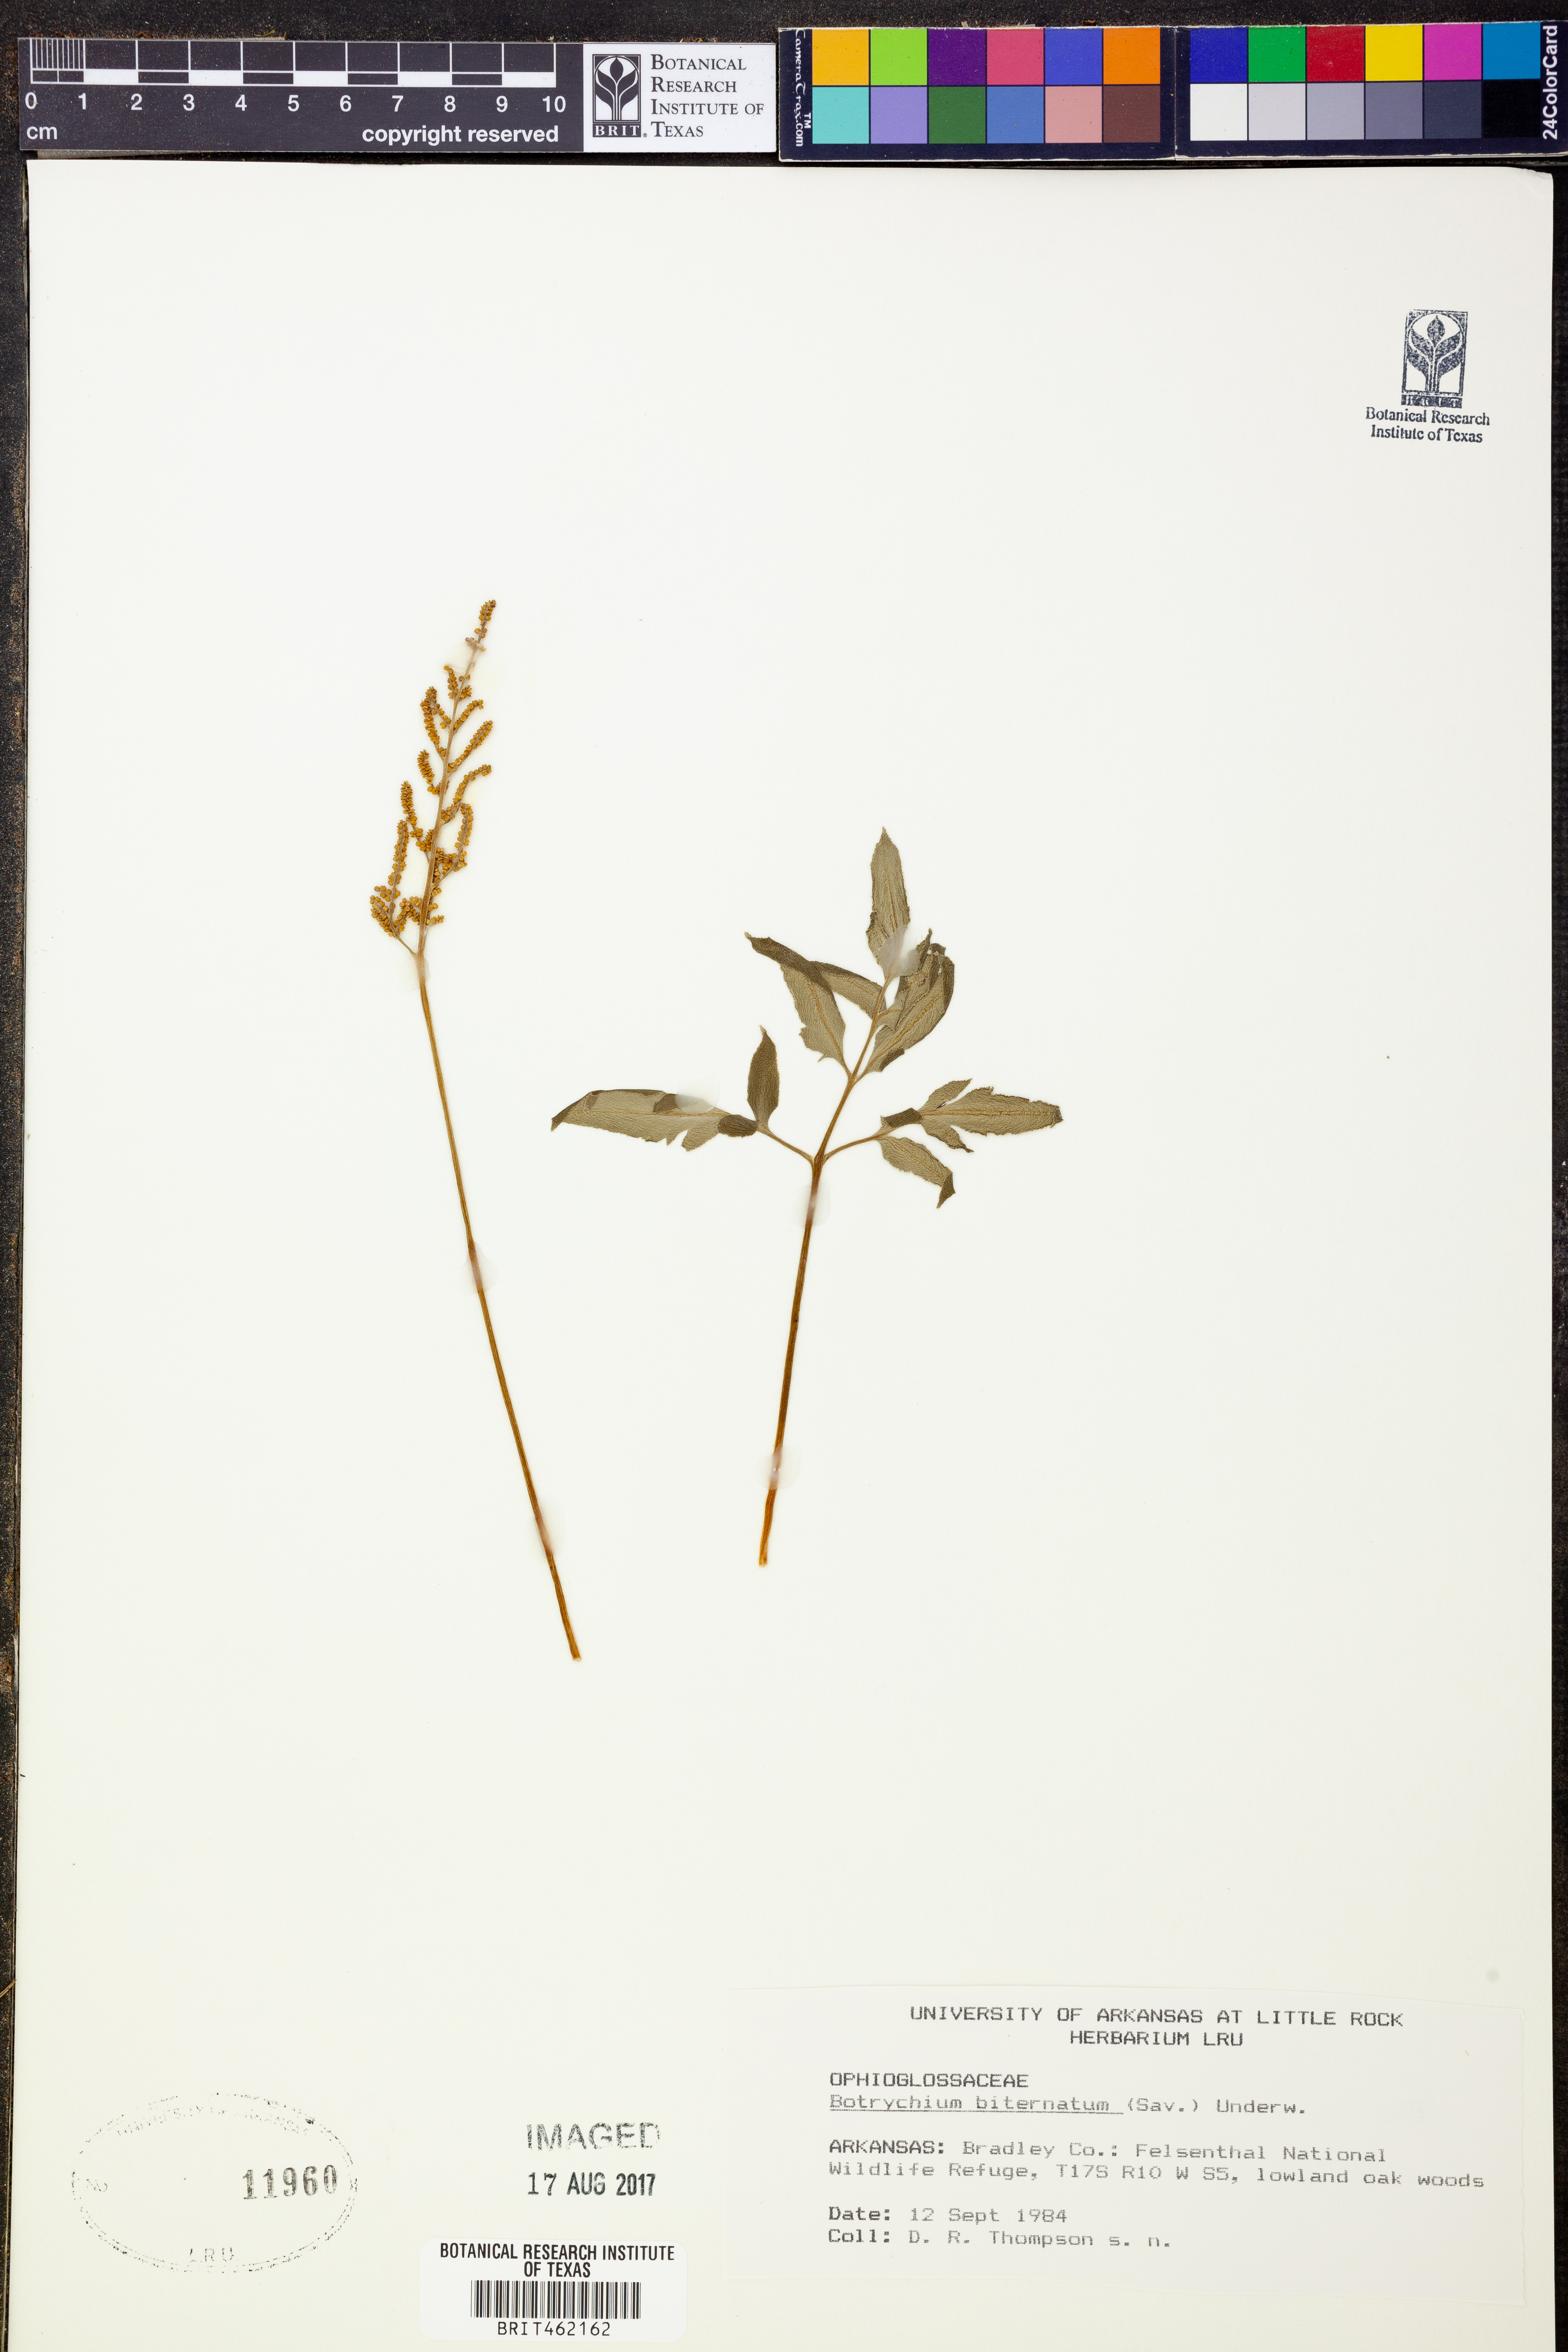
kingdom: Plantae
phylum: Tracheophyta
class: Polypodiopsida
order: Ophioglossales
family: Ophioglossaceae
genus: Sceptridium
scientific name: Sceptridium biternatum
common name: Sparse-lobed grapefern
